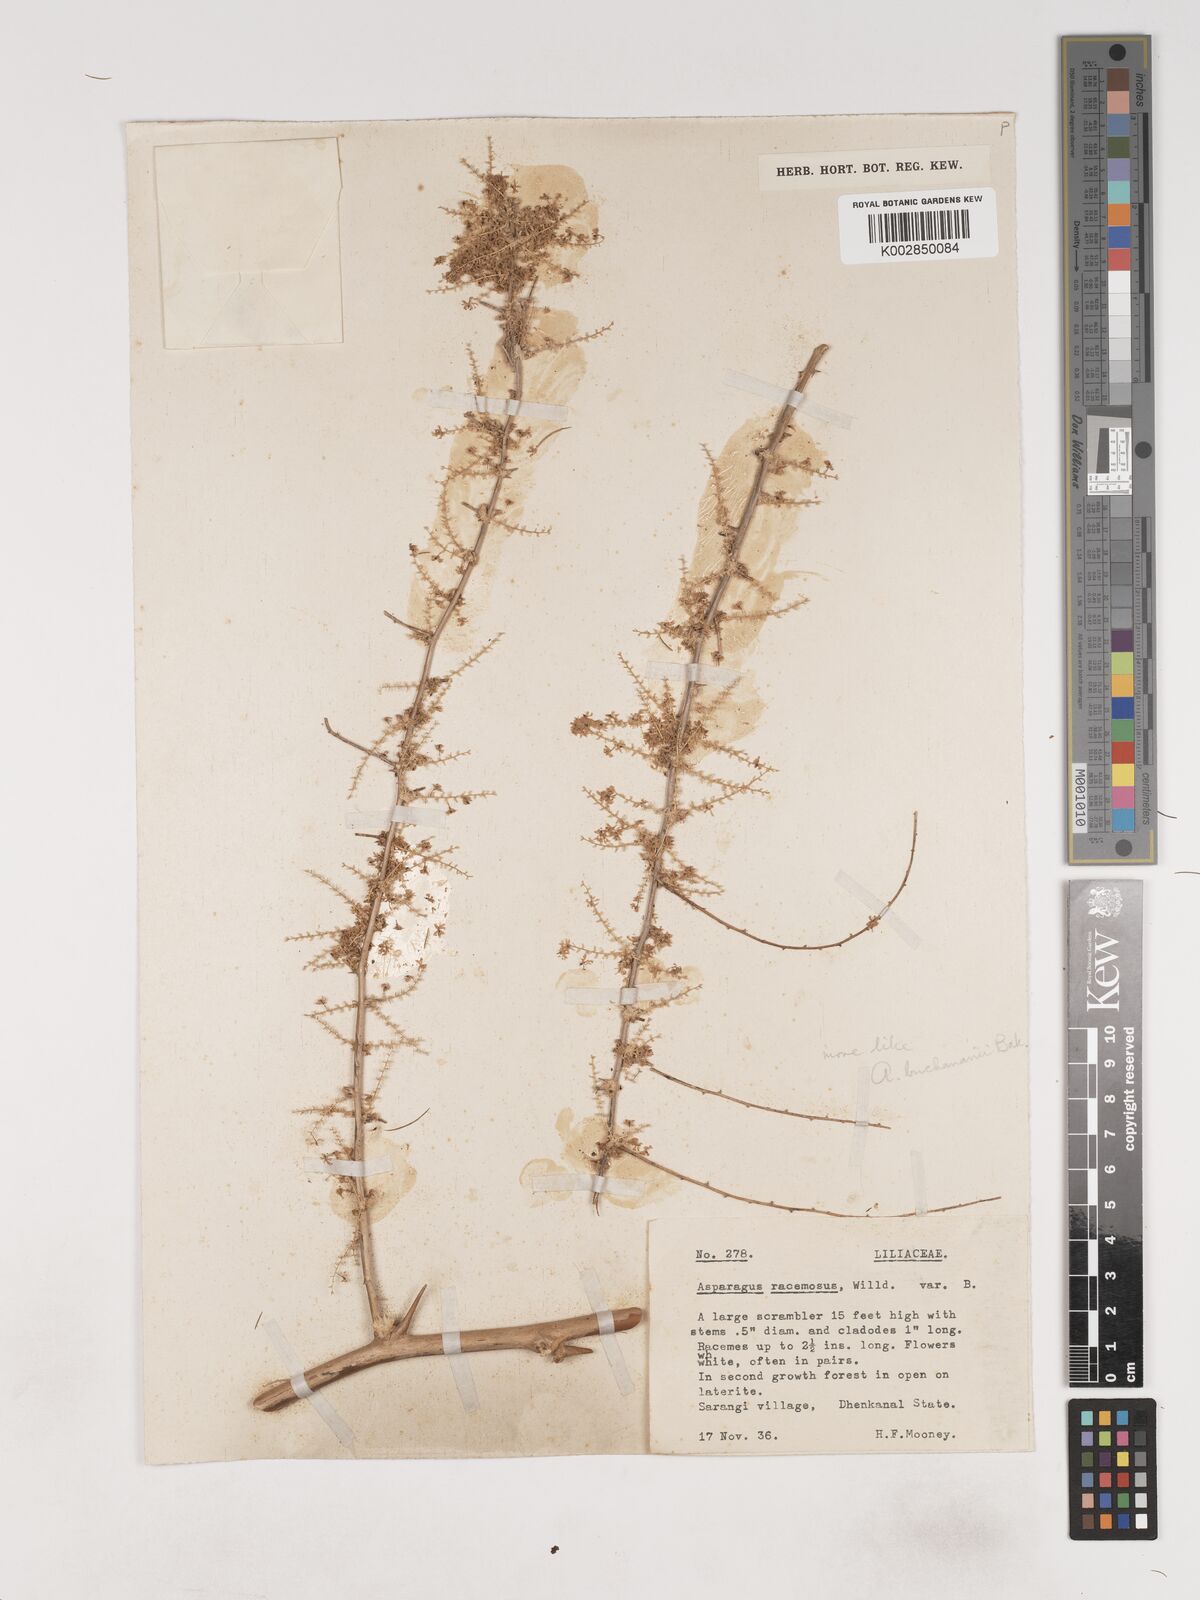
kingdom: Plantae
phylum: Tracheophyta
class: Liliopsida
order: Asparagales
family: Asparagaceae
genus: Asparagus
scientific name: Asparagus racemosus
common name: Asparagus-fern
